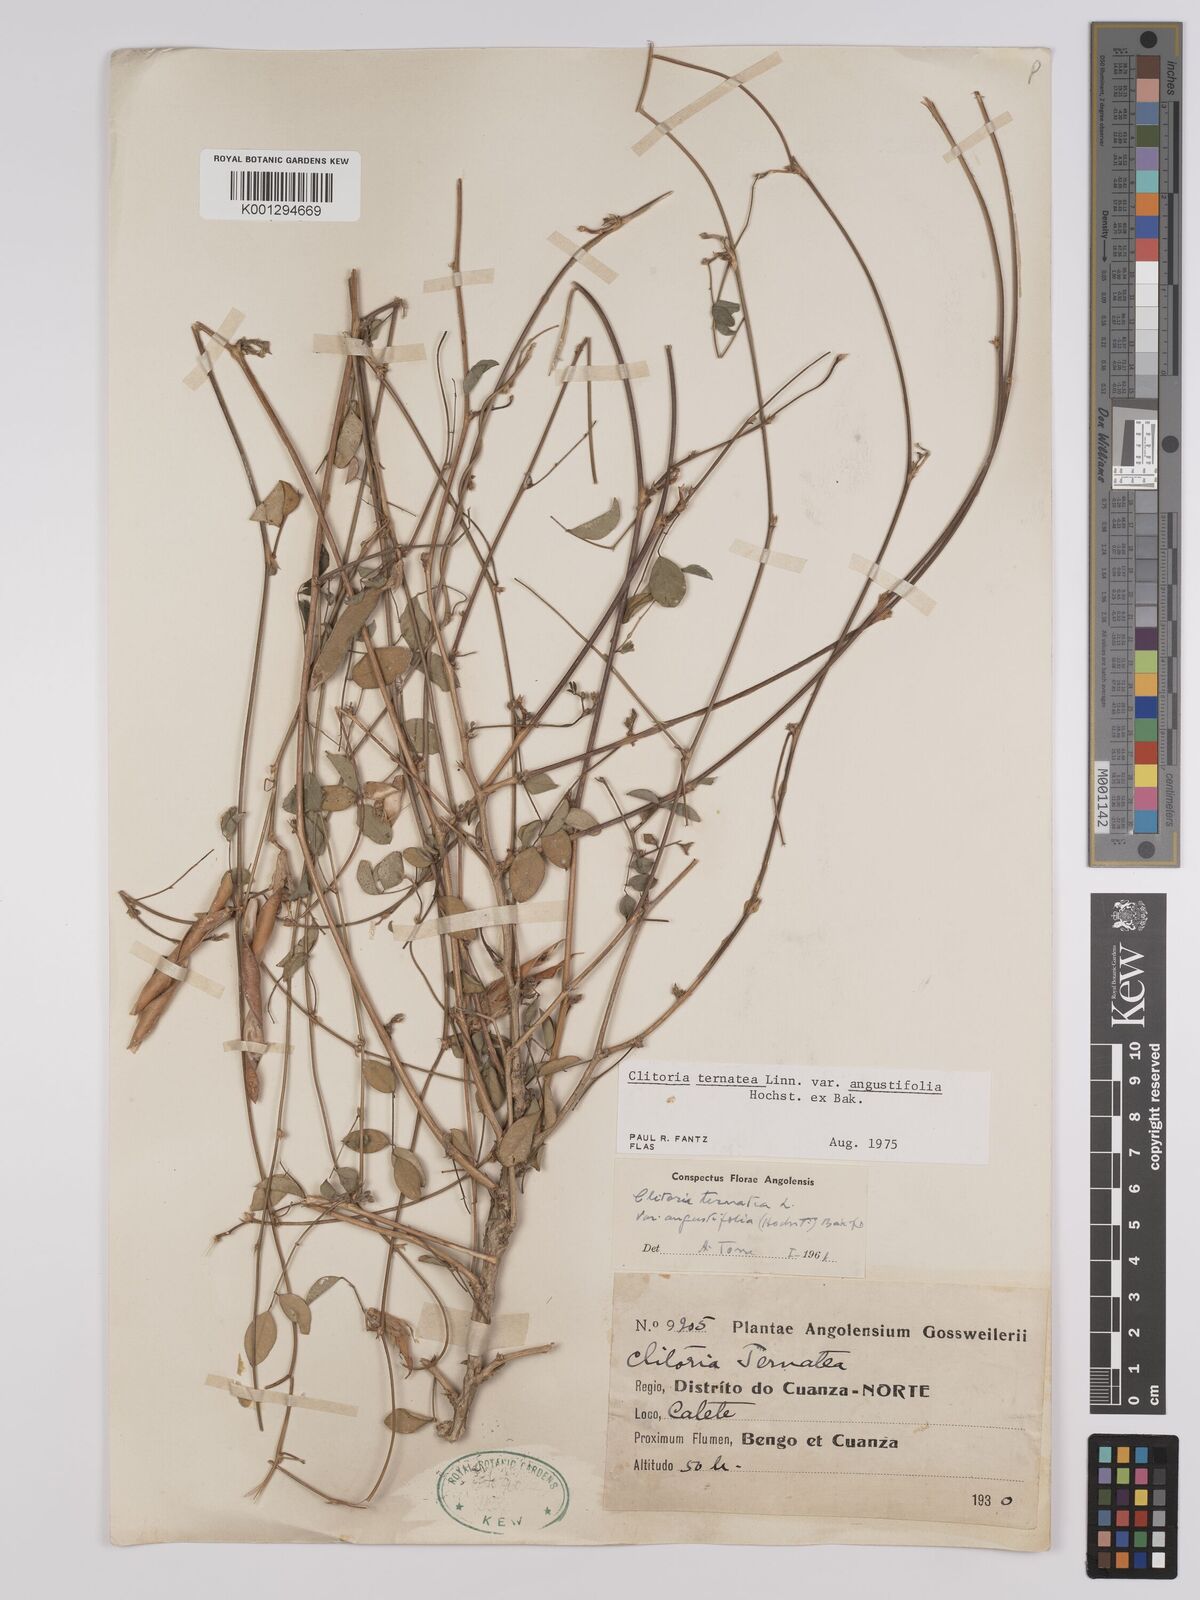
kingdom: Plantae
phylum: Tracheophyta
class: Magnoliopsida
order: Fabales
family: Fabaceae
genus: Clitoria
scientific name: Clitoria ternatea
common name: Asian pigeonwings
